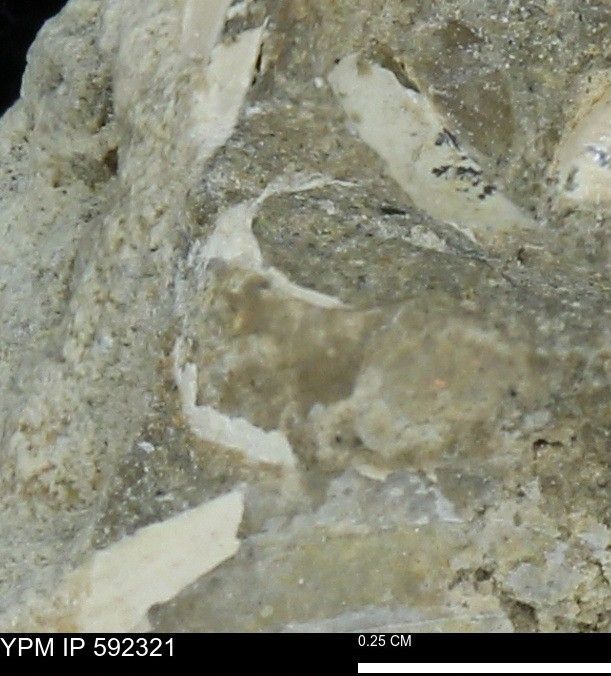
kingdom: Animalia
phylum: Mollusca
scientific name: Mollusca
